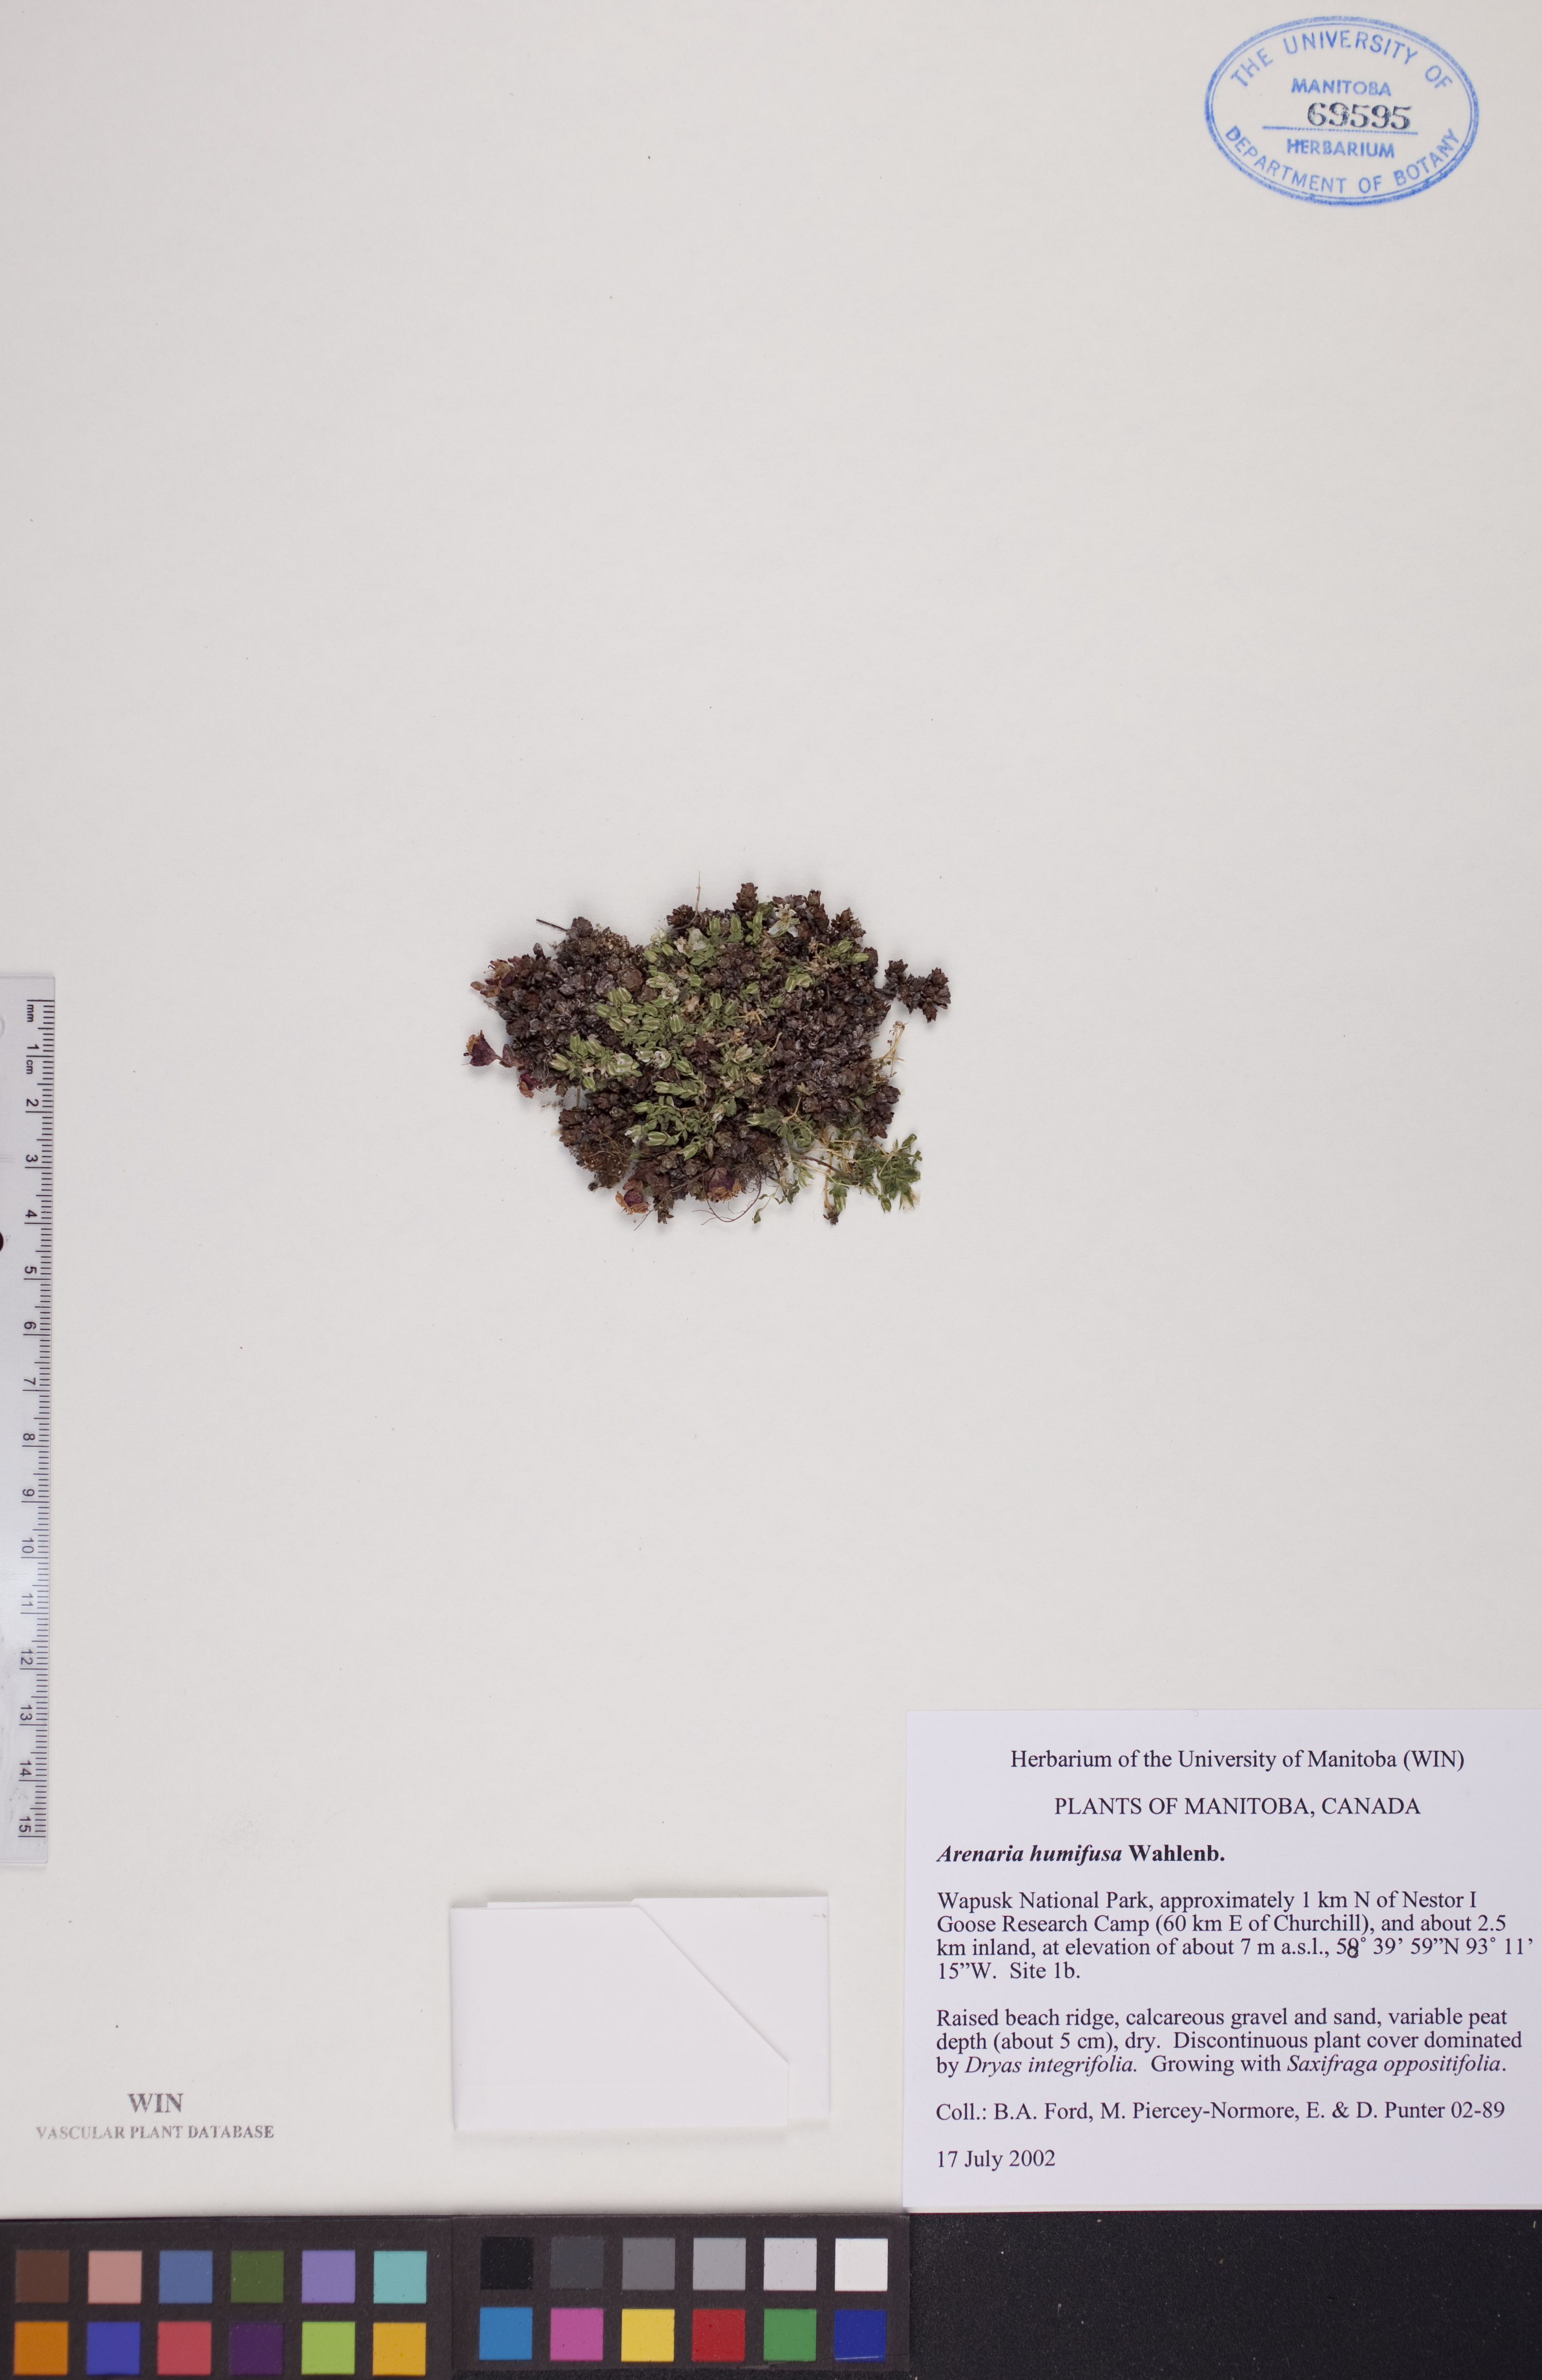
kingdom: Plantae
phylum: Tracheophyta
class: Magnoliopsida
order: Caryophyllales
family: Caryophyllaceae
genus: Arenaria
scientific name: Arenaria humifusa
